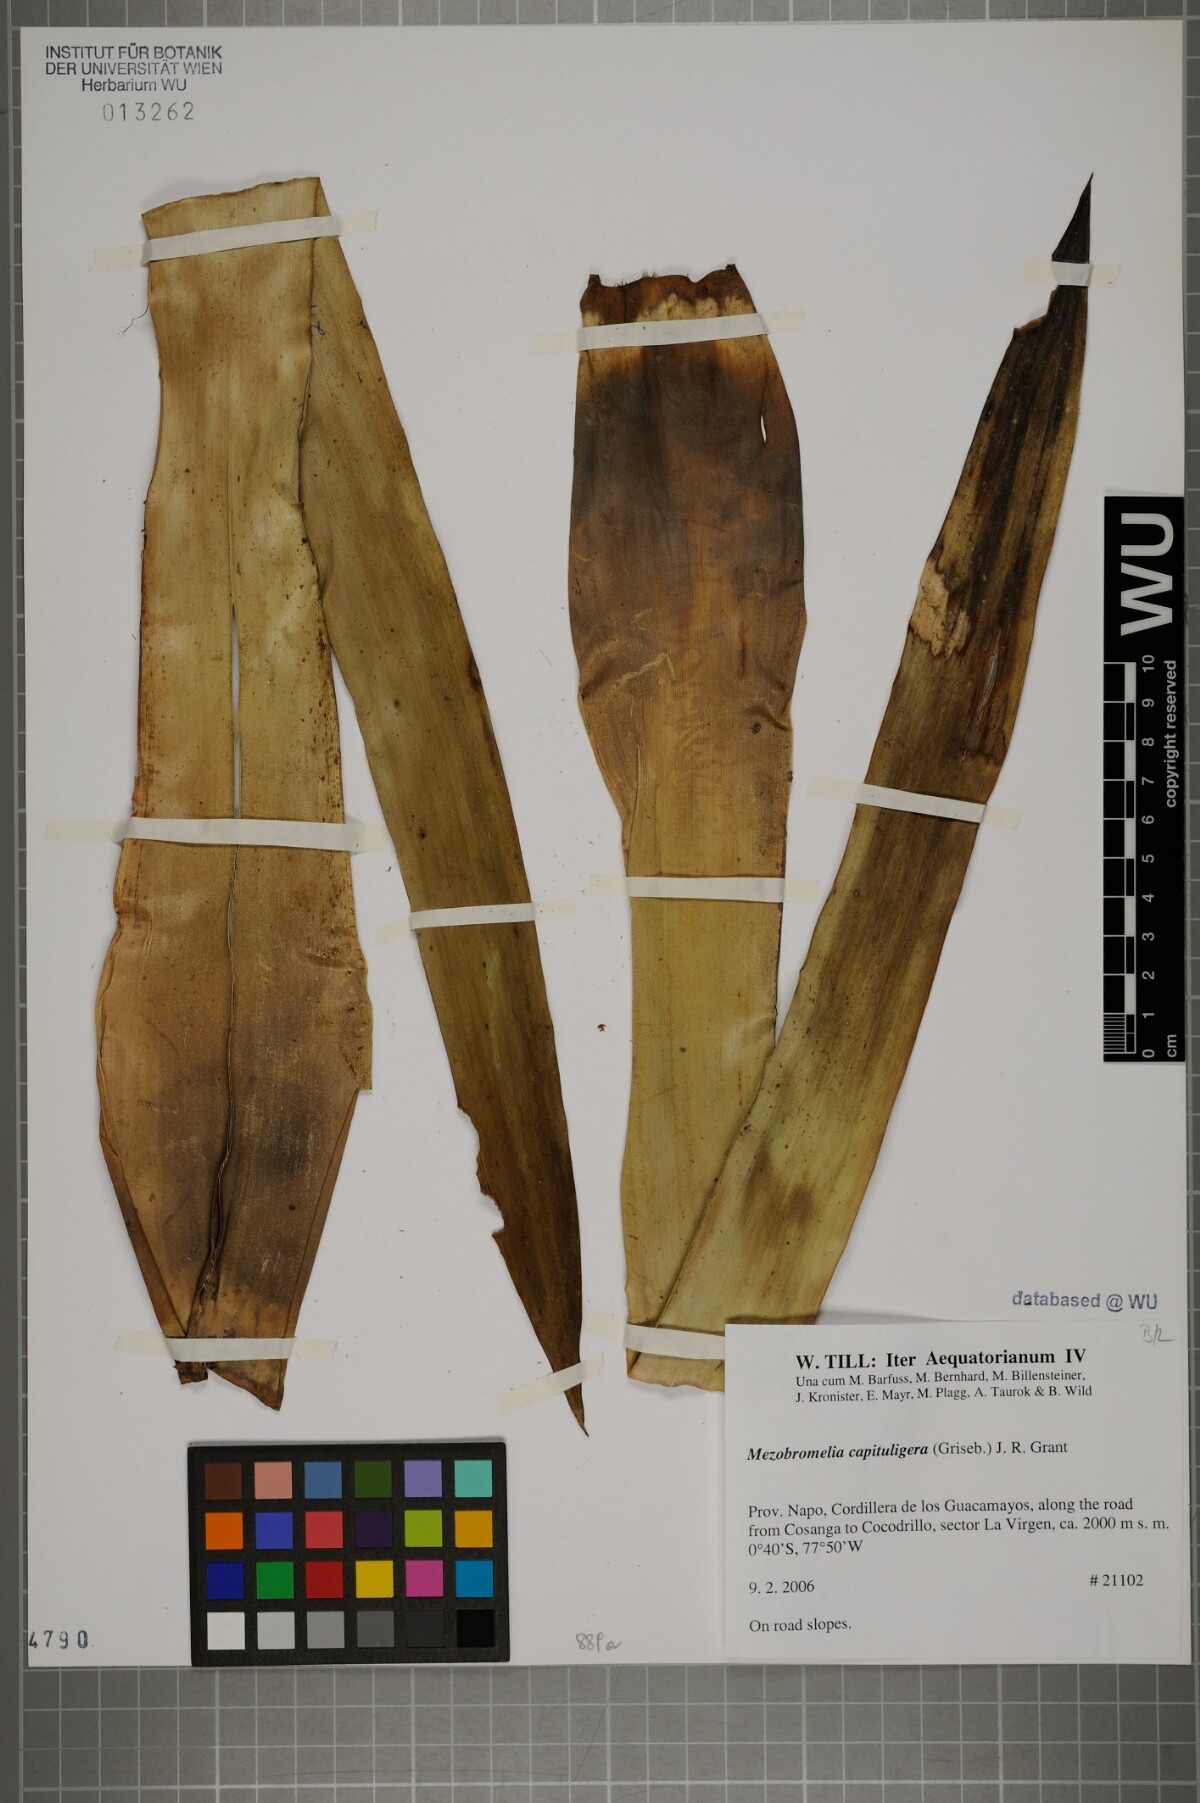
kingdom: Plantae
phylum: Tracheophyta
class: Liliopsida
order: Poales
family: Bromeliaceae
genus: Cipuropsis
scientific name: Cipuropsis bicolor
